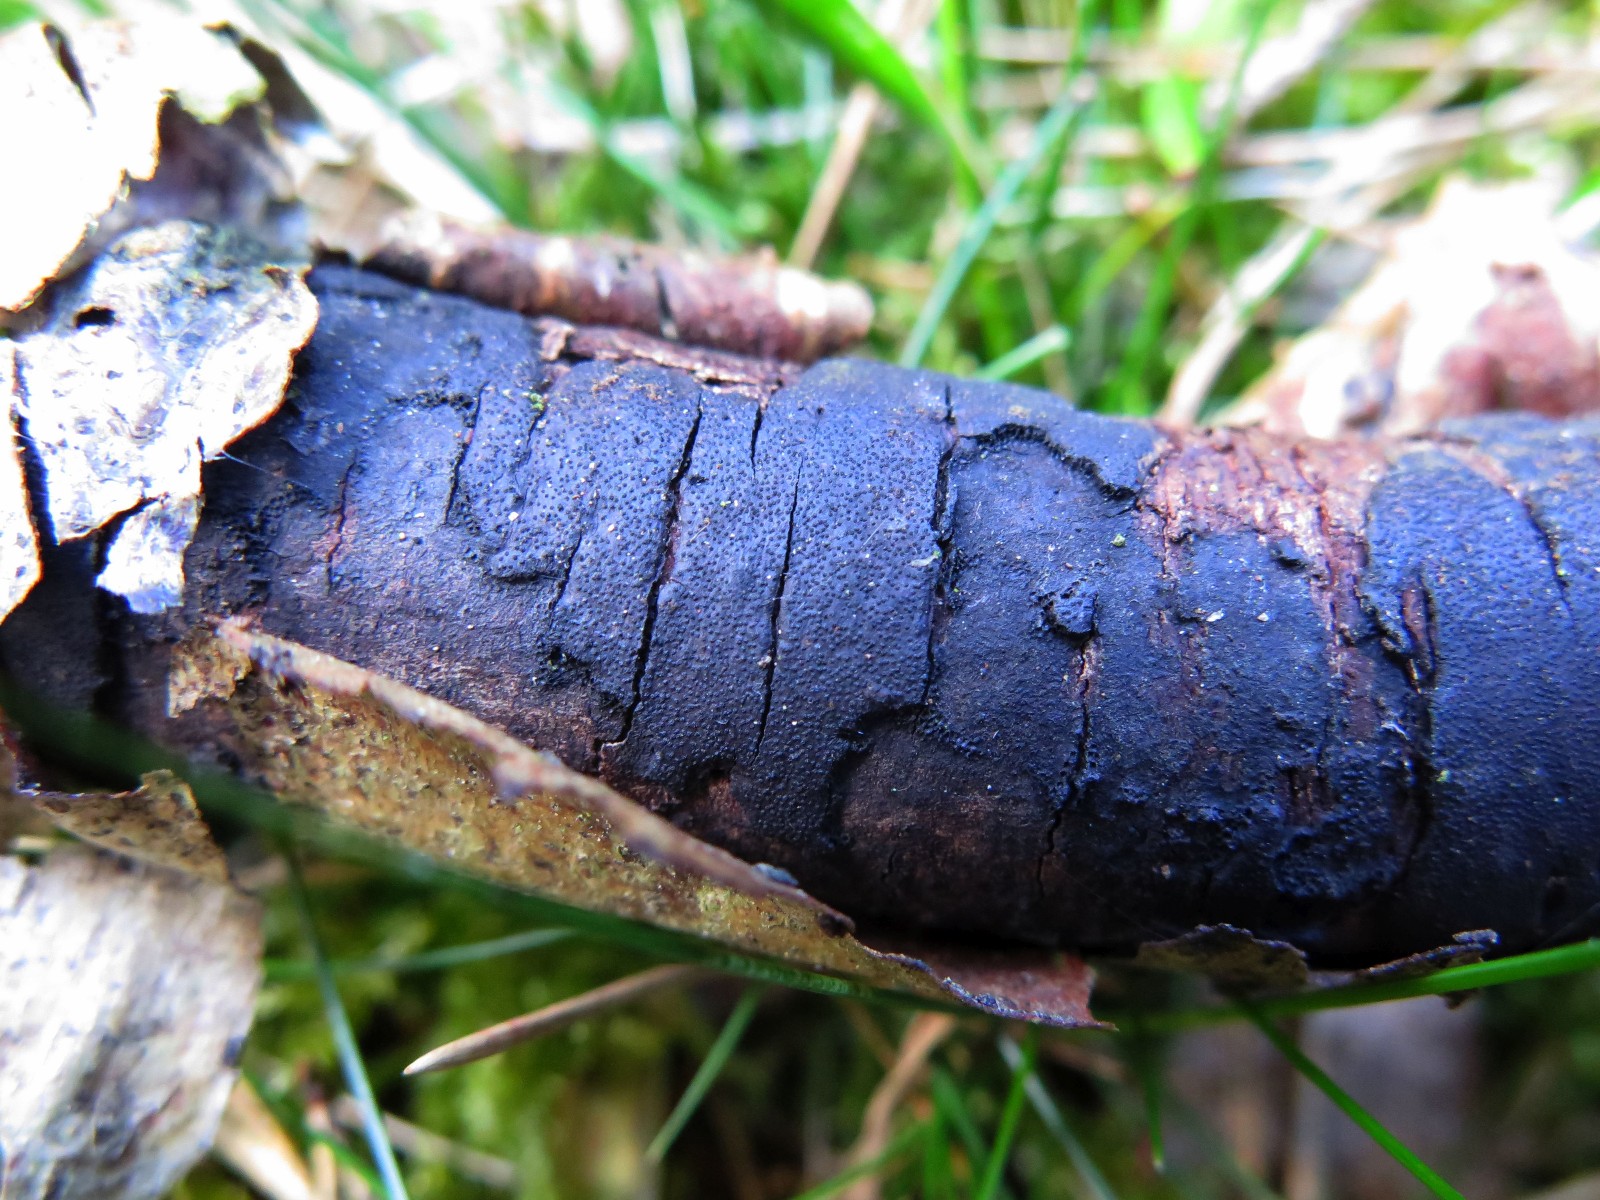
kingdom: Fungi
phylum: Ascomycota
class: Sordariomycetes
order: Xylariales
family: Diatrypaceae
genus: Diatrype
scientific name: Diatrype stigma
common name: udbredt kulskorpe
